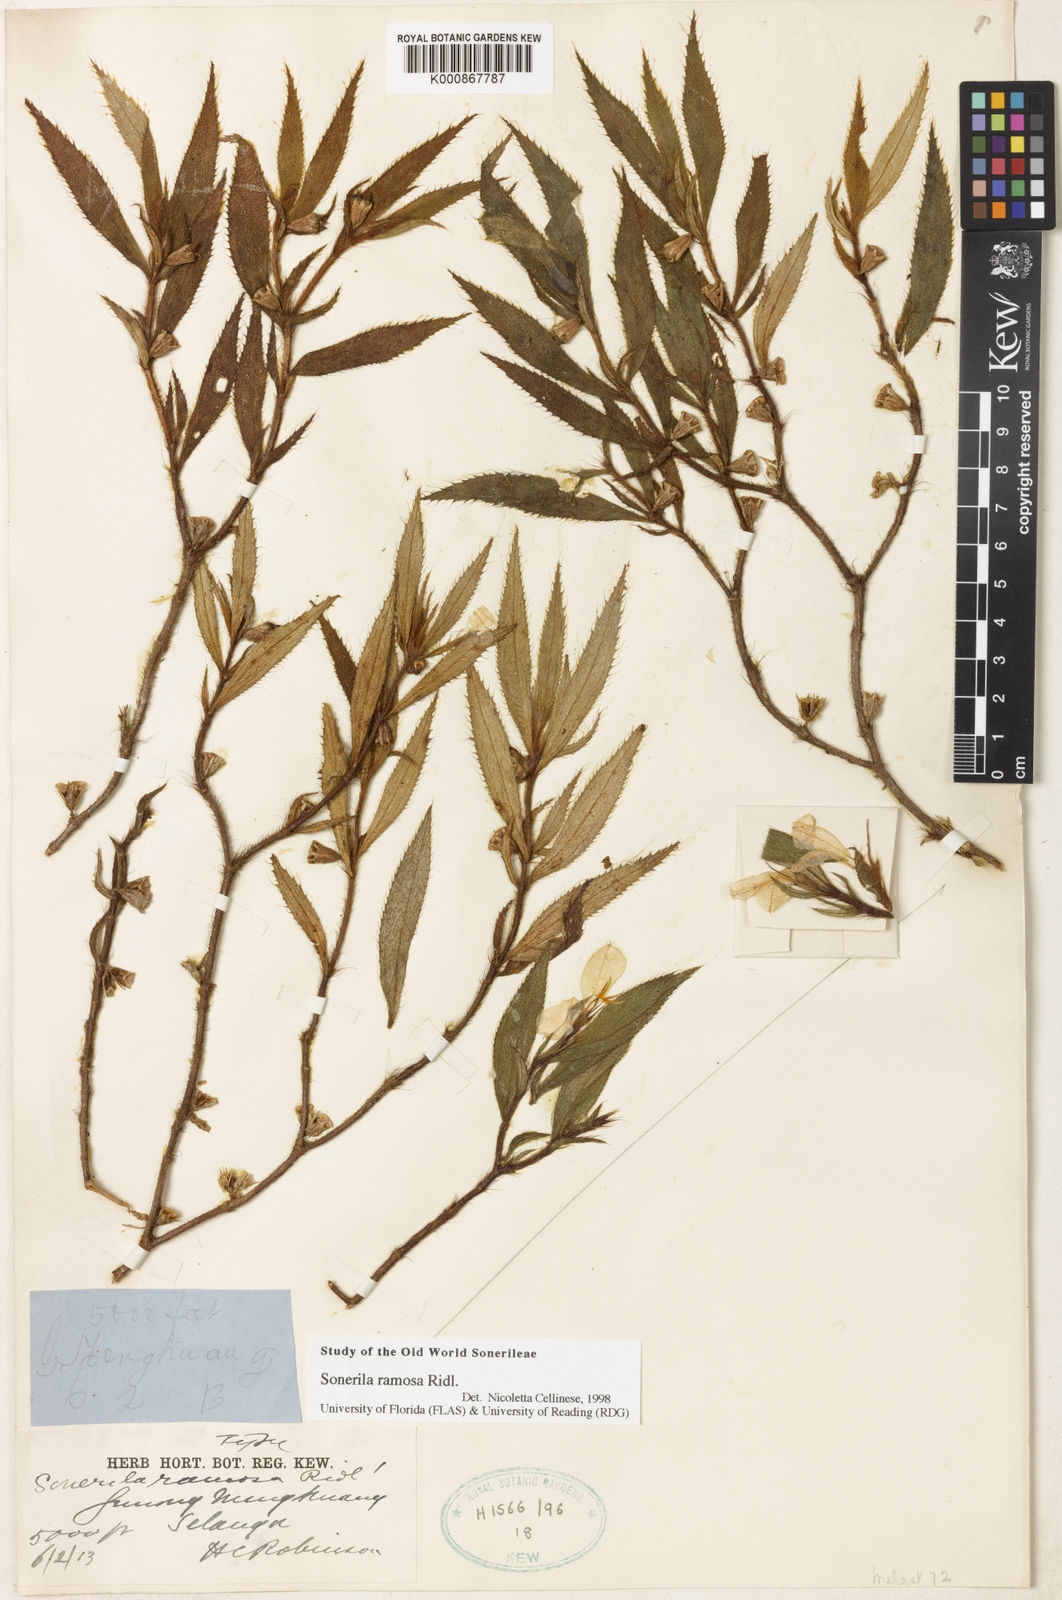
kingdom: Plantae
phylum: Tracheophyta
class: Magnoliopsida
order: Myrtales
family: Melastomataceae
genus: Sonerila
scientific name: Sonerila ramosa
